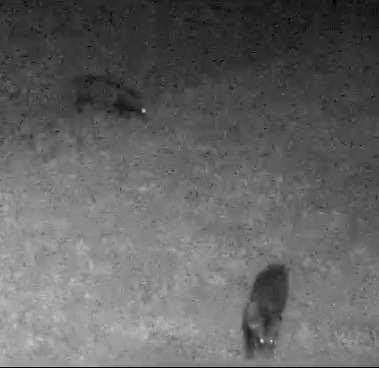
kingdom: Animalia
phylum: Chordata
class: Mammalia
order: Carnivora
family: Canidae
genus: Nyctereutes
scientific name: Nyctereutes procyonoides
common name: Mårhund
